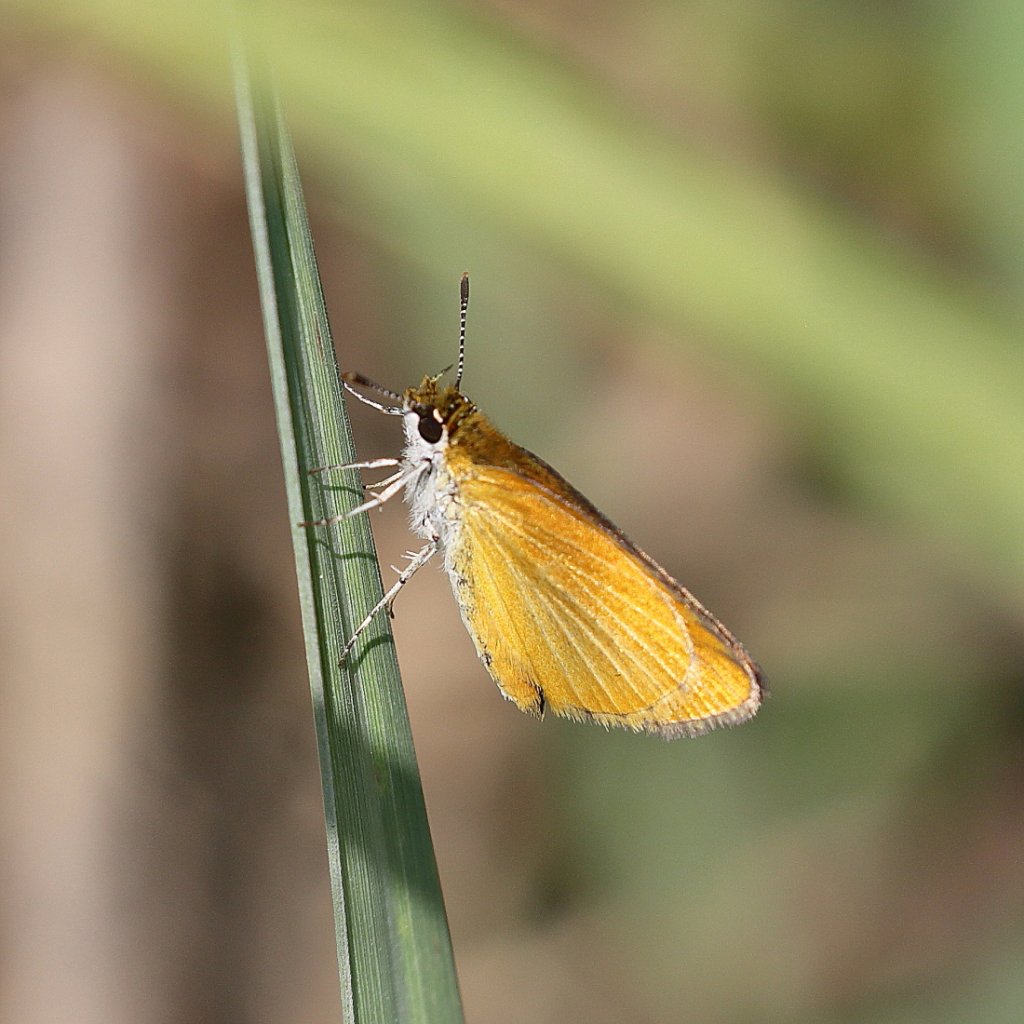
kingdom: Animalia
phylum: Arthropoda
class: Insecta
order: Lepidoptera
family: Hesperiidae
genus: Ancyloxypha
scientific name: Ancyloxypha numitor
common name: Least Skipper
